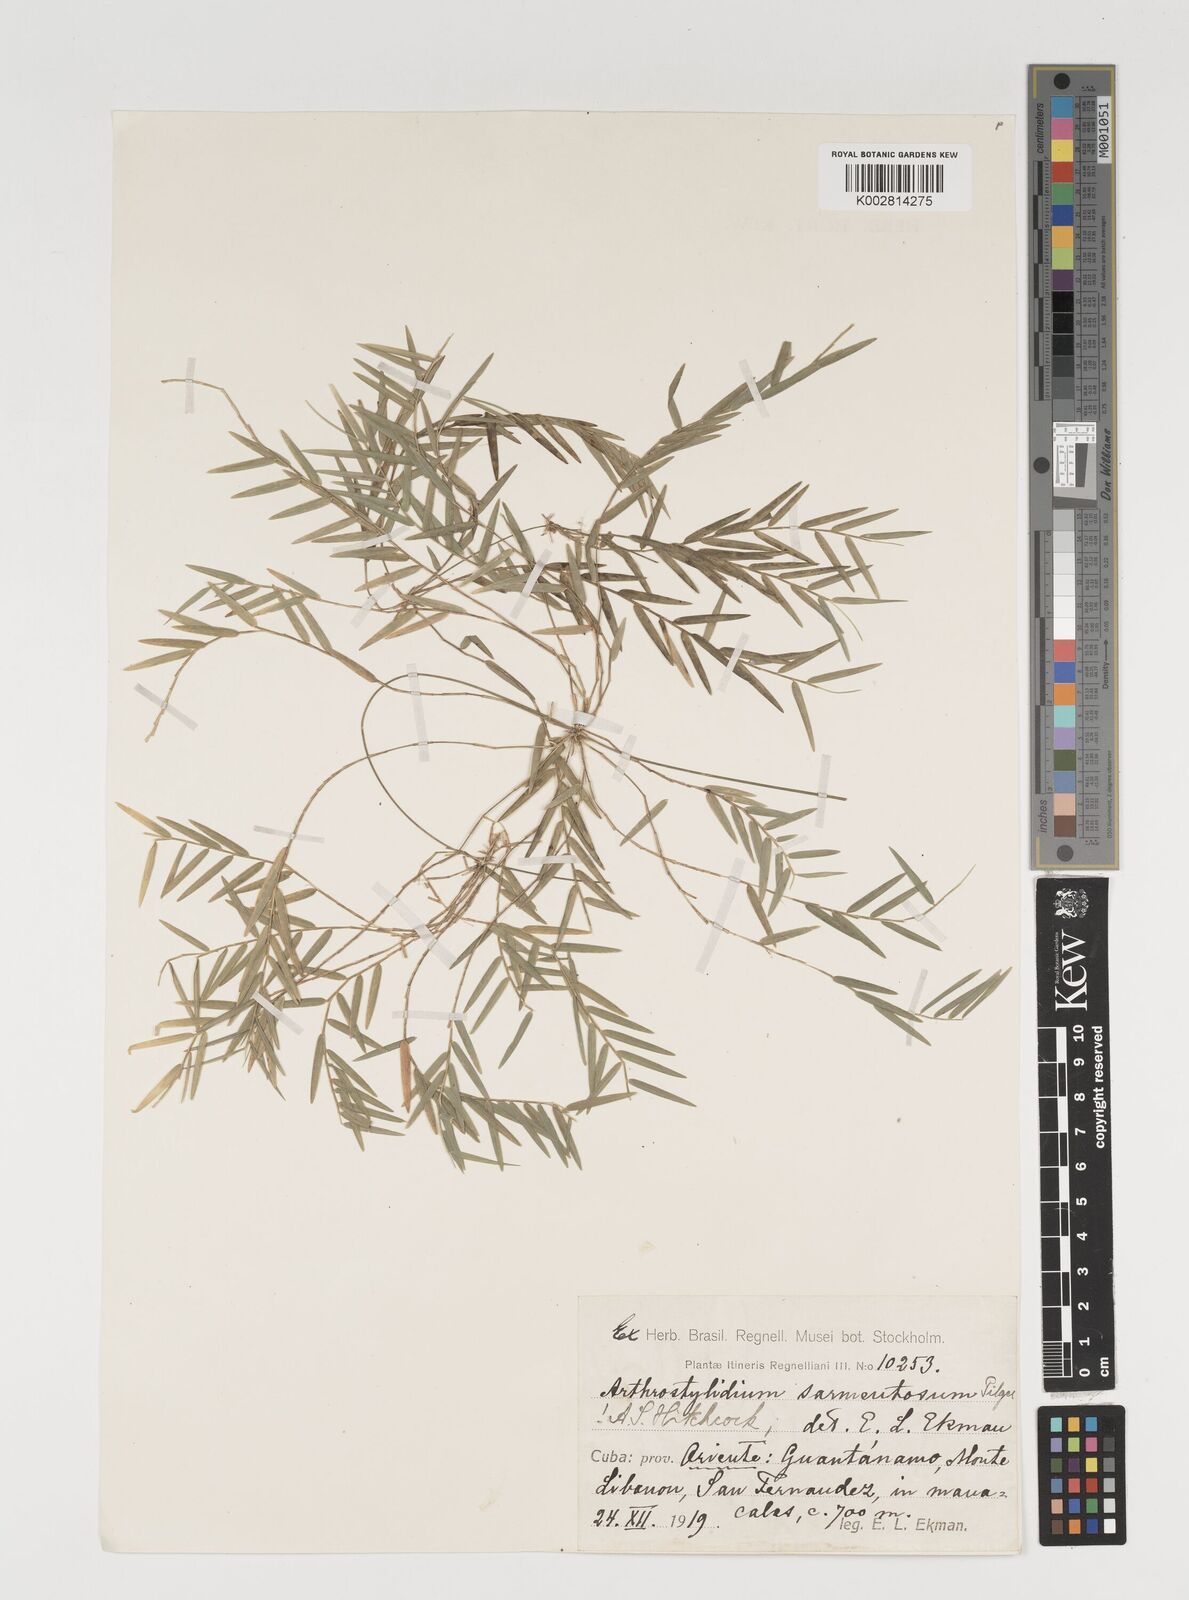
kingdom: Plantae
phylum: Tracheophyta
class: Liliopsida
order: Poales
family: Poaceae
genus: Arthrostylidium
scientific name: Arthrostylidium sarmentosum
